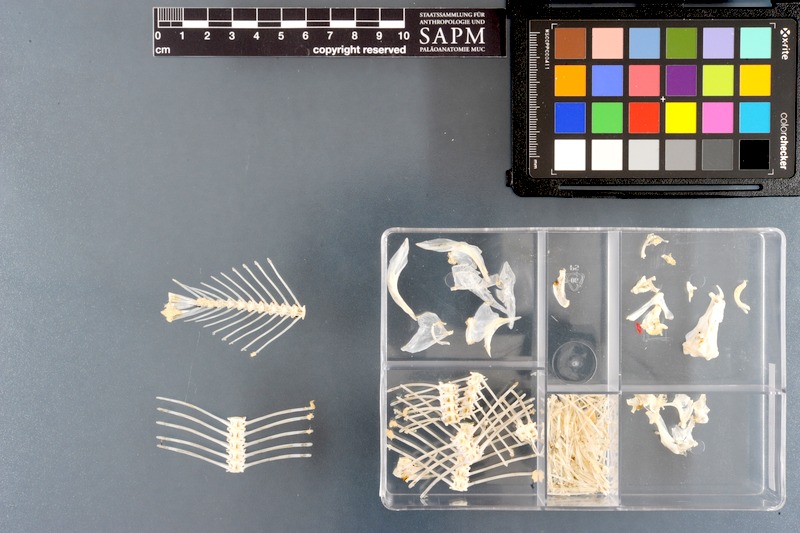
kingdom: Animalia
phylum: Chordata
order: Pleuronectiformes
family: Soleidae
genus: Brachirus
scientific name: Brachirus orientalis
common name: Oriental sole
